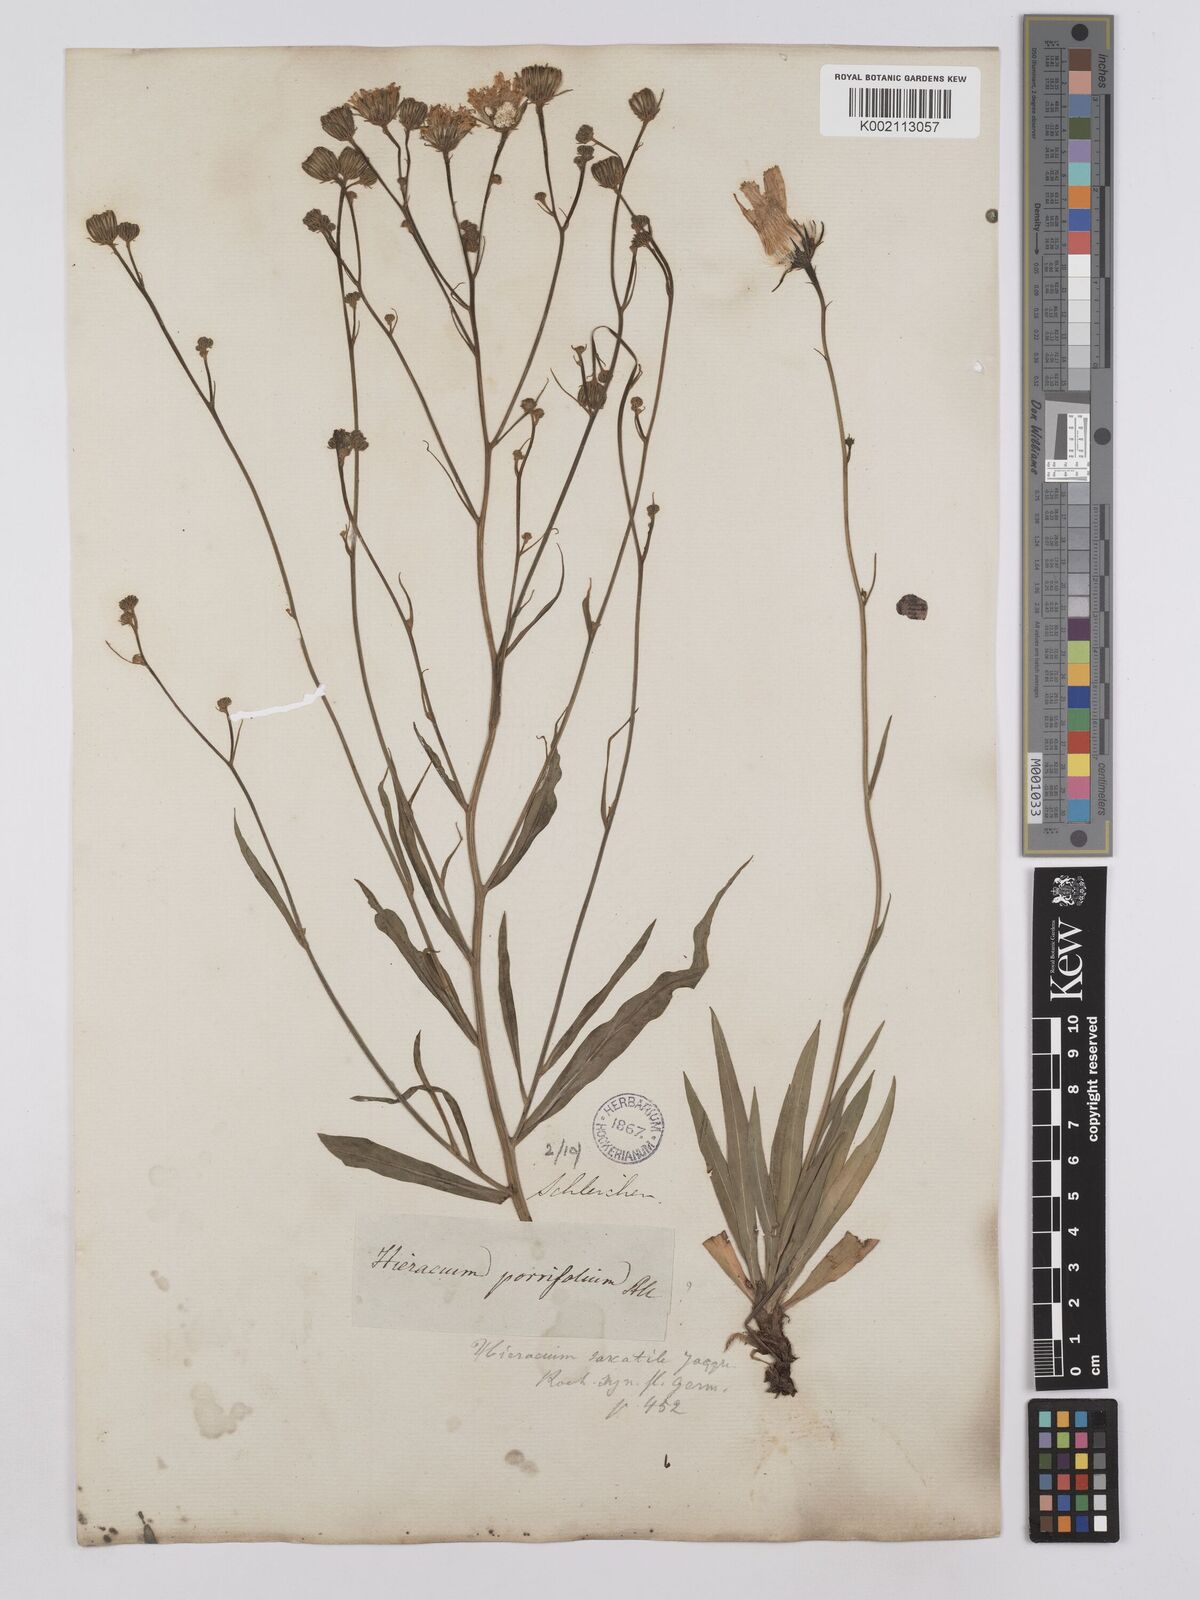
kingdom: Plantae
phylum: Tracheophyta
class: Magnoliopsida
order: Asterales
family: Asteraceae
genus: Hieracium
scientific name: Hieracium bupleuroides
